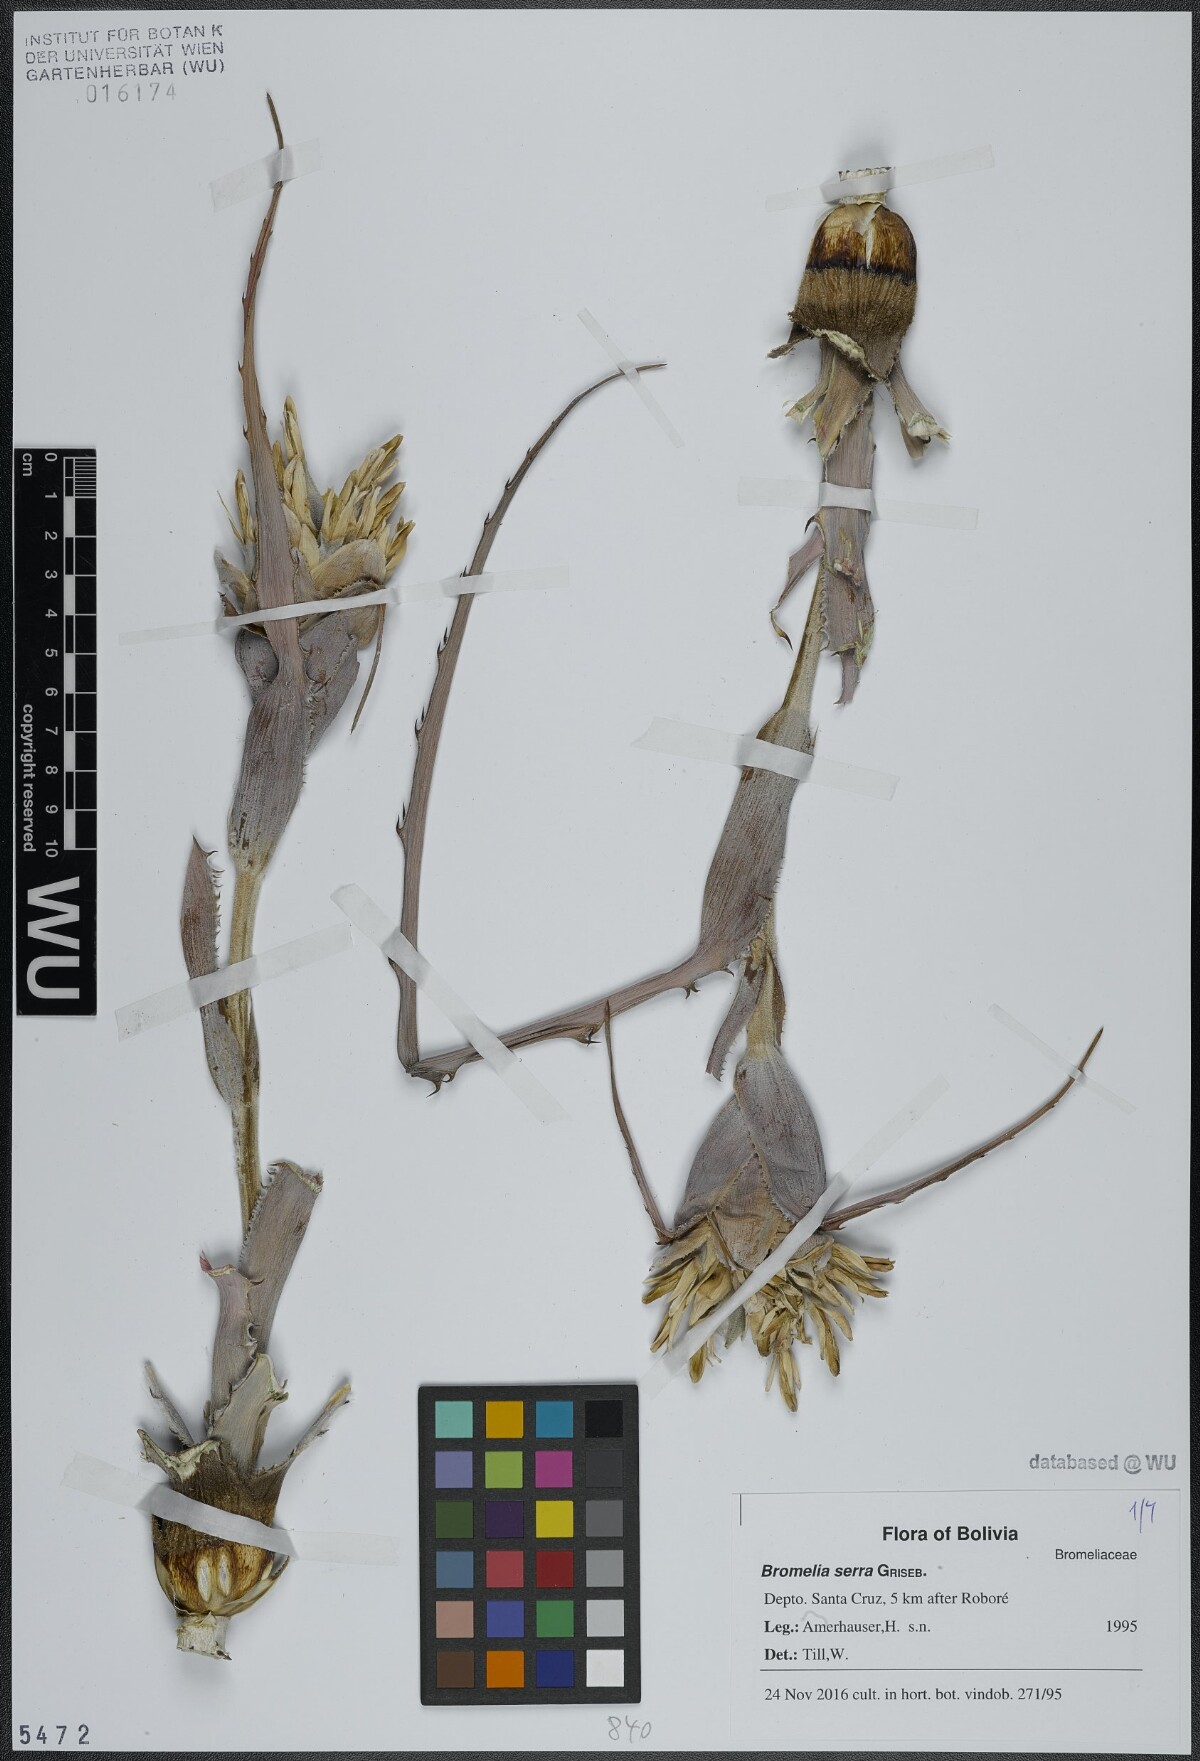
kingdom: Plantae
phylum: Tracheophyta
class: Liliopsida
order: Poales
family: Bromeliaceae
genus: Bromelia
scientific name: Bromelia serra
